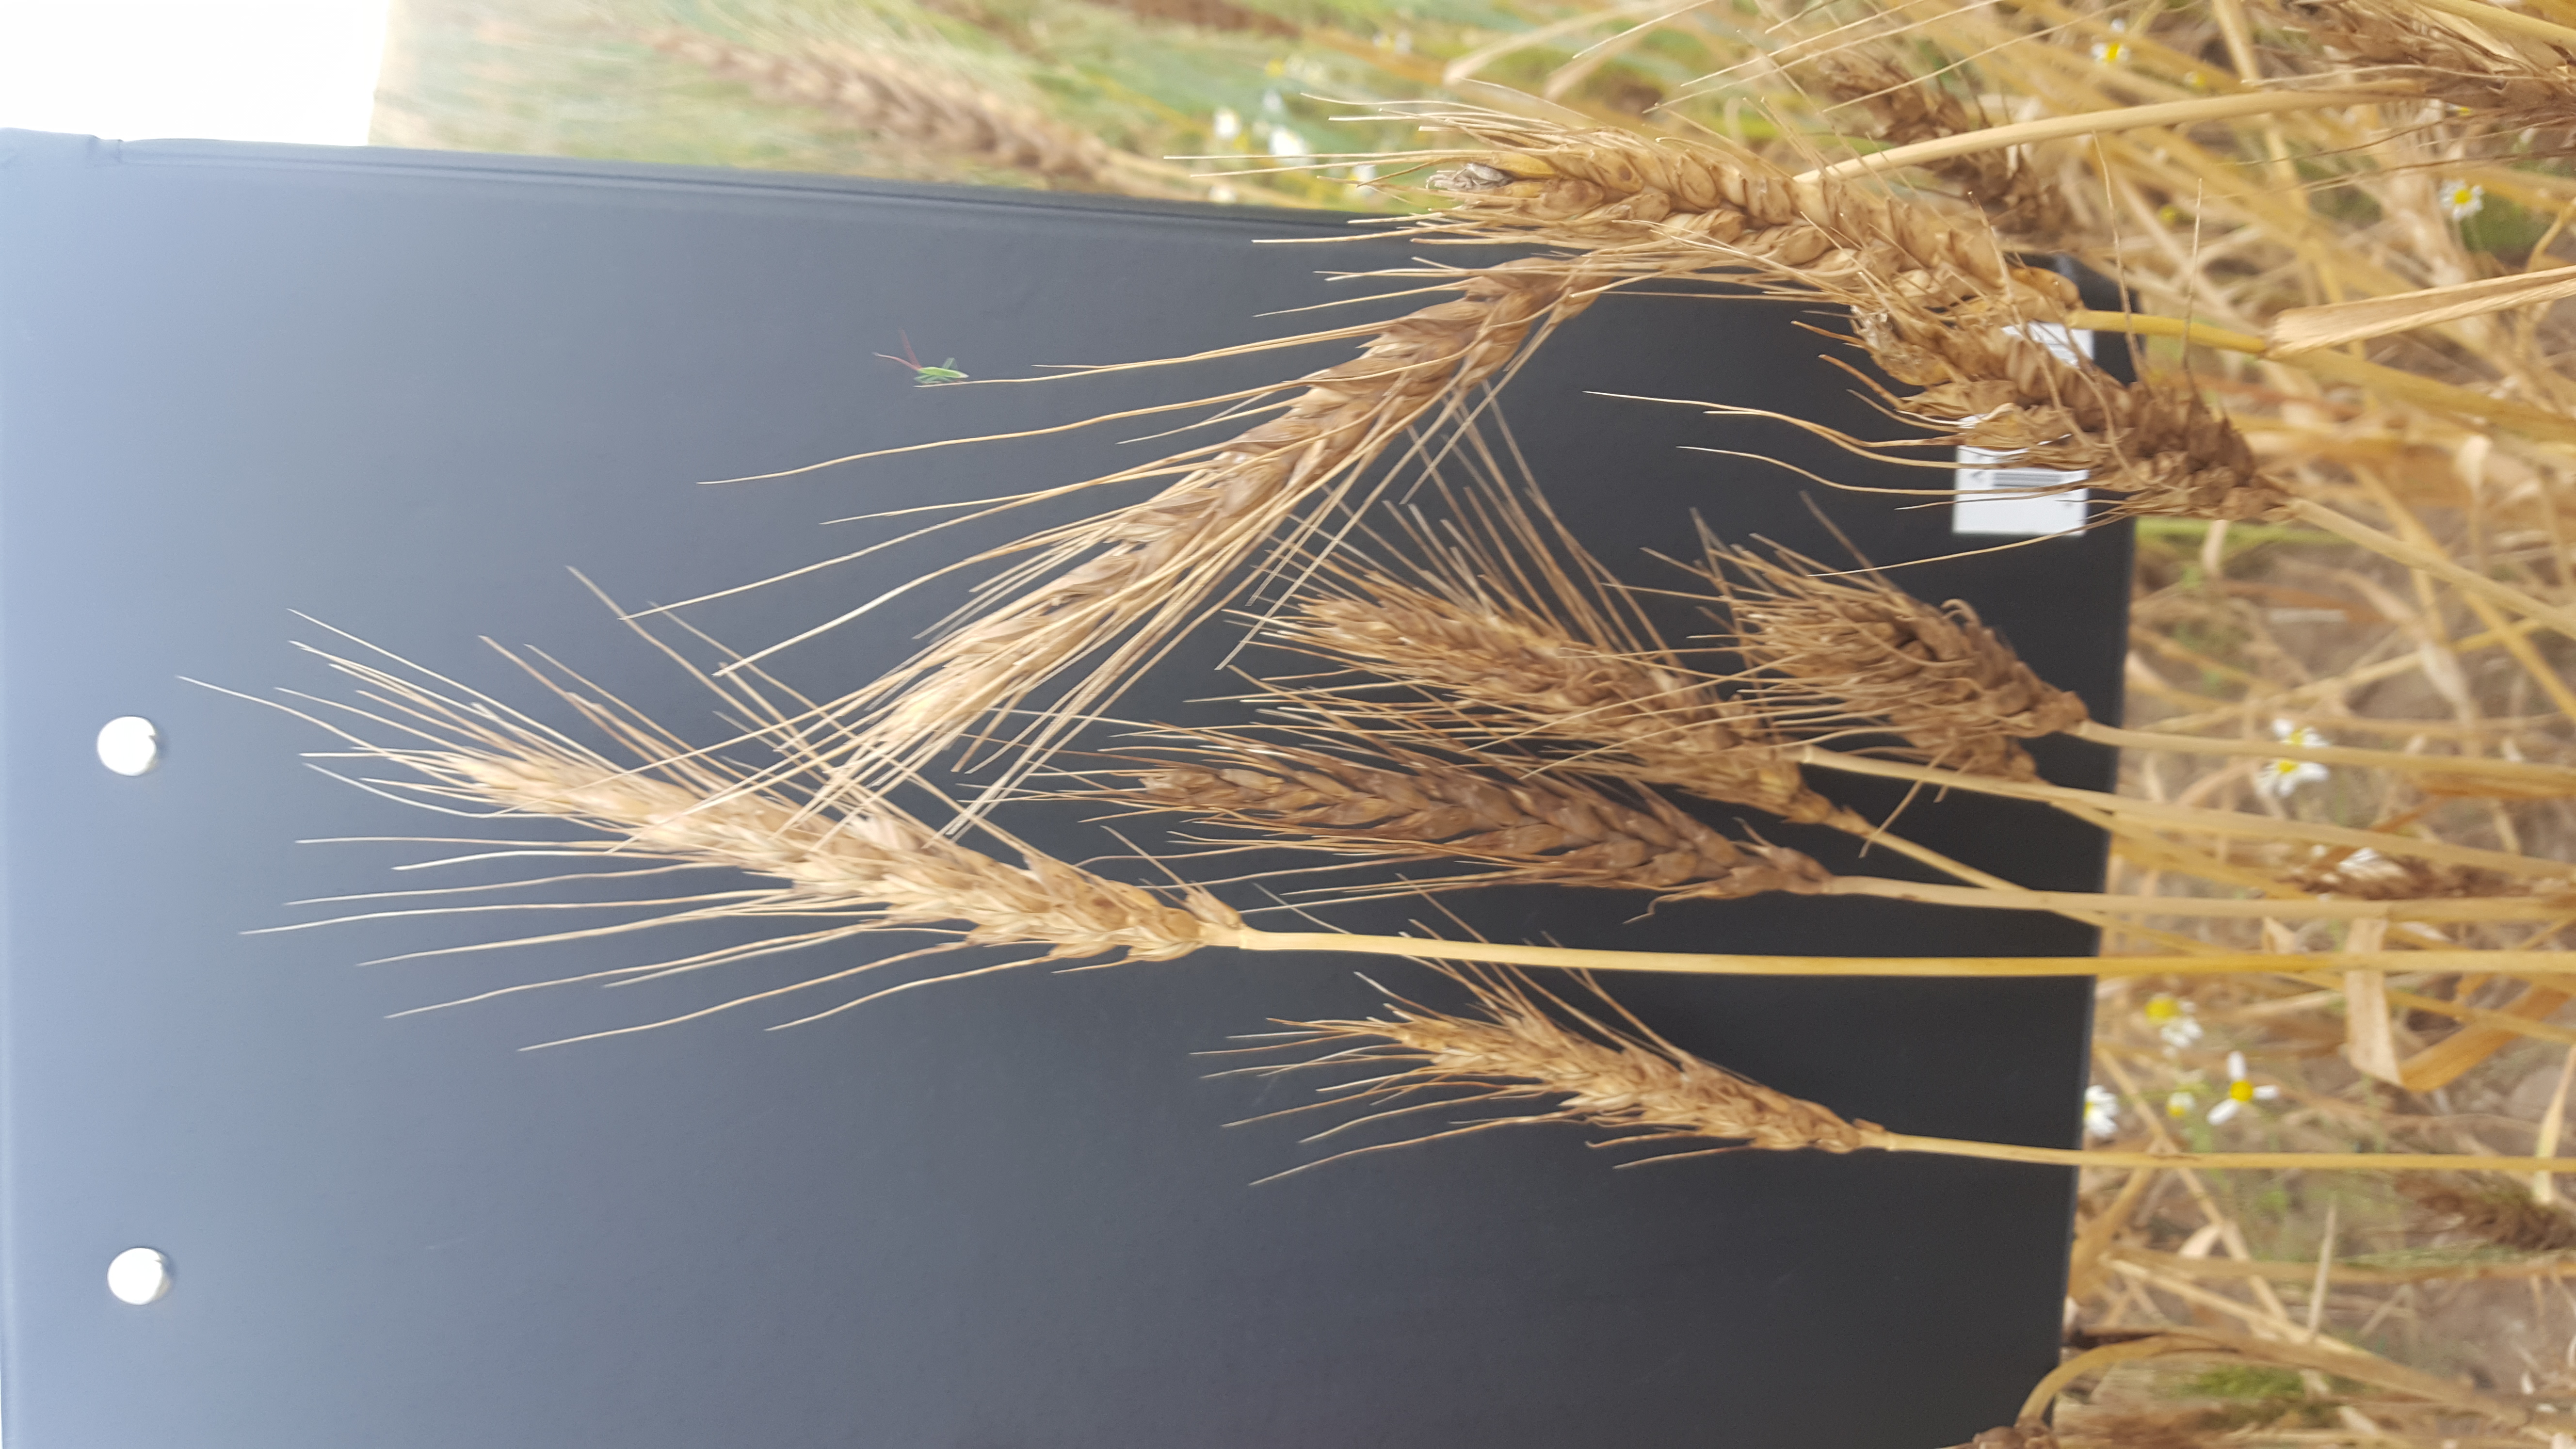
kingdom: Plantae
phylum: Tracheophyta
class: Liliopsida
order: Poales
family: Poaceae
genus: Triticum
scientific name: Triticum aestivum
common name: Common wheat
